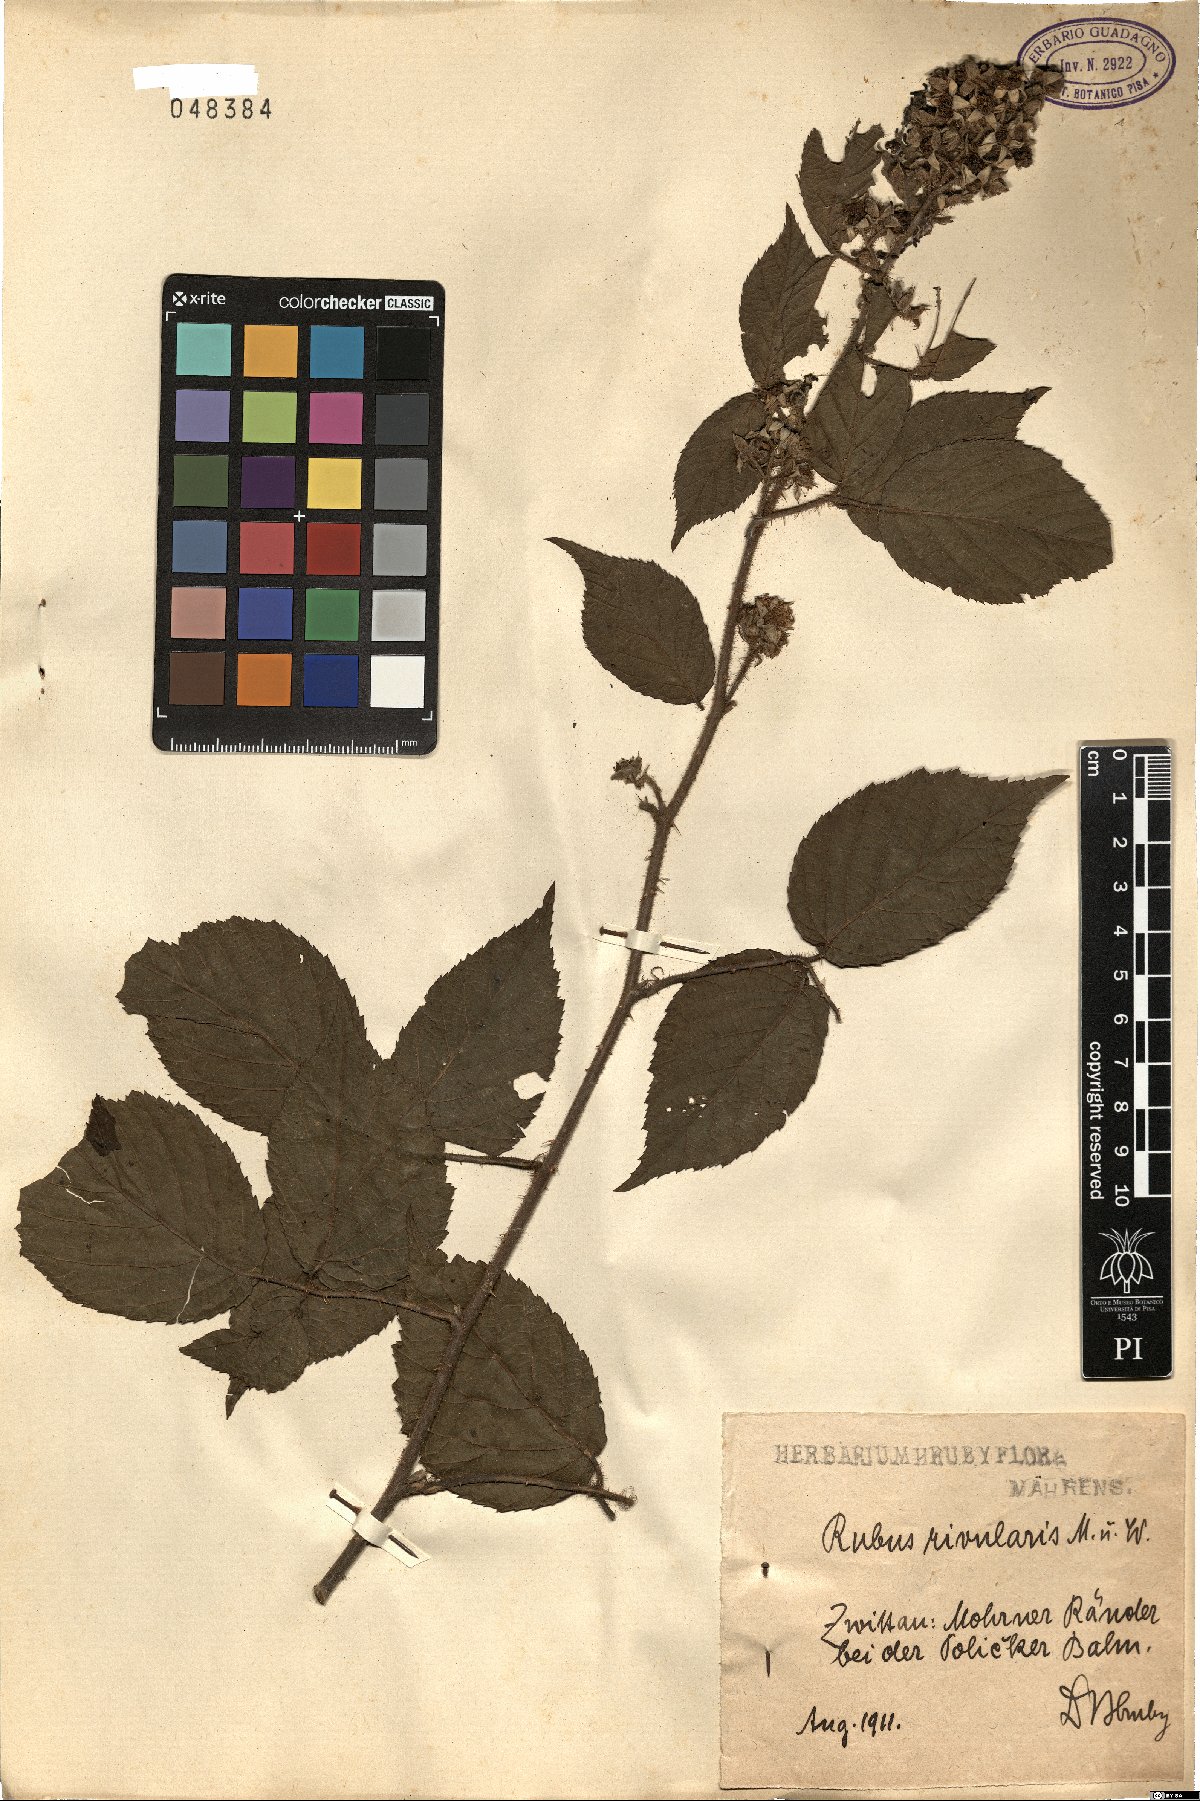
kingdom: Plantae
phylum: Tracheophyta
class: Magnoliopsida
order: Rosales
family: Rosaceae
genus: Rubus
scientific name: Rubus rivularis
